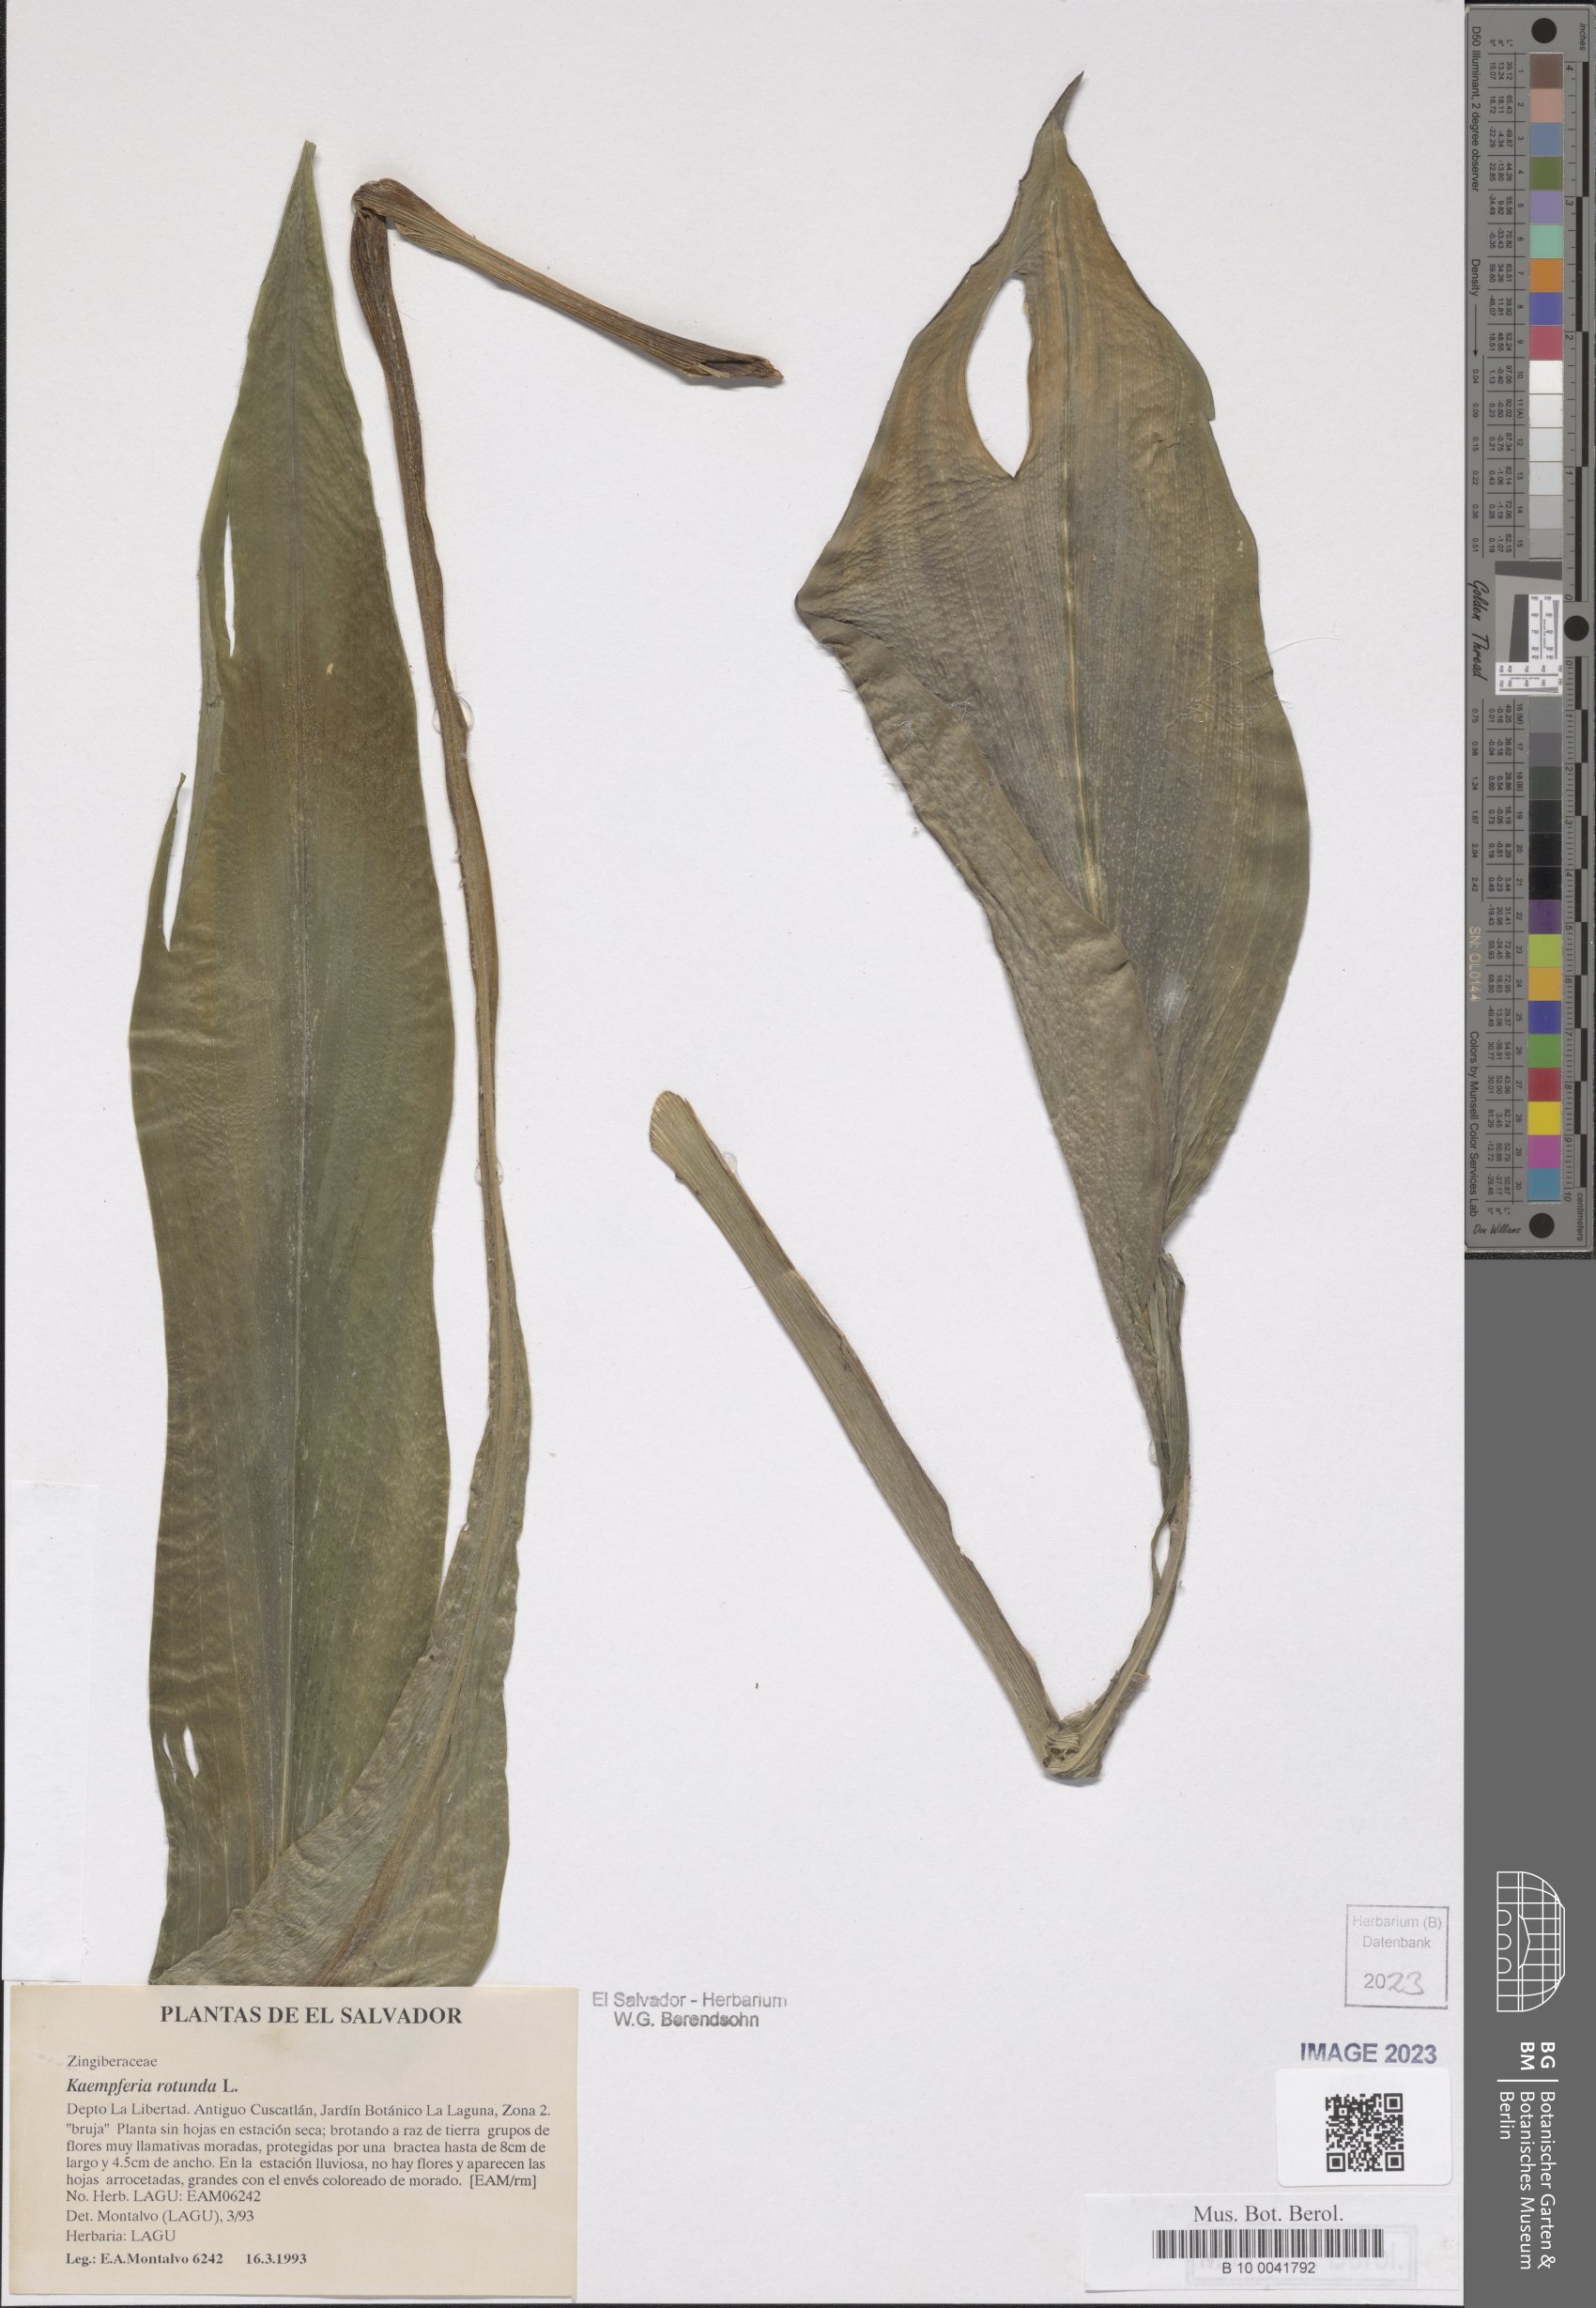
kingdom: Plantae
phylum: Tracheophyta
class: Liliopsida
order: Zingiberales
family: Zingiberaceae
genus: Kaempferia
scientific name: Kaempferia rotunda
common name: Tropical-crocus
